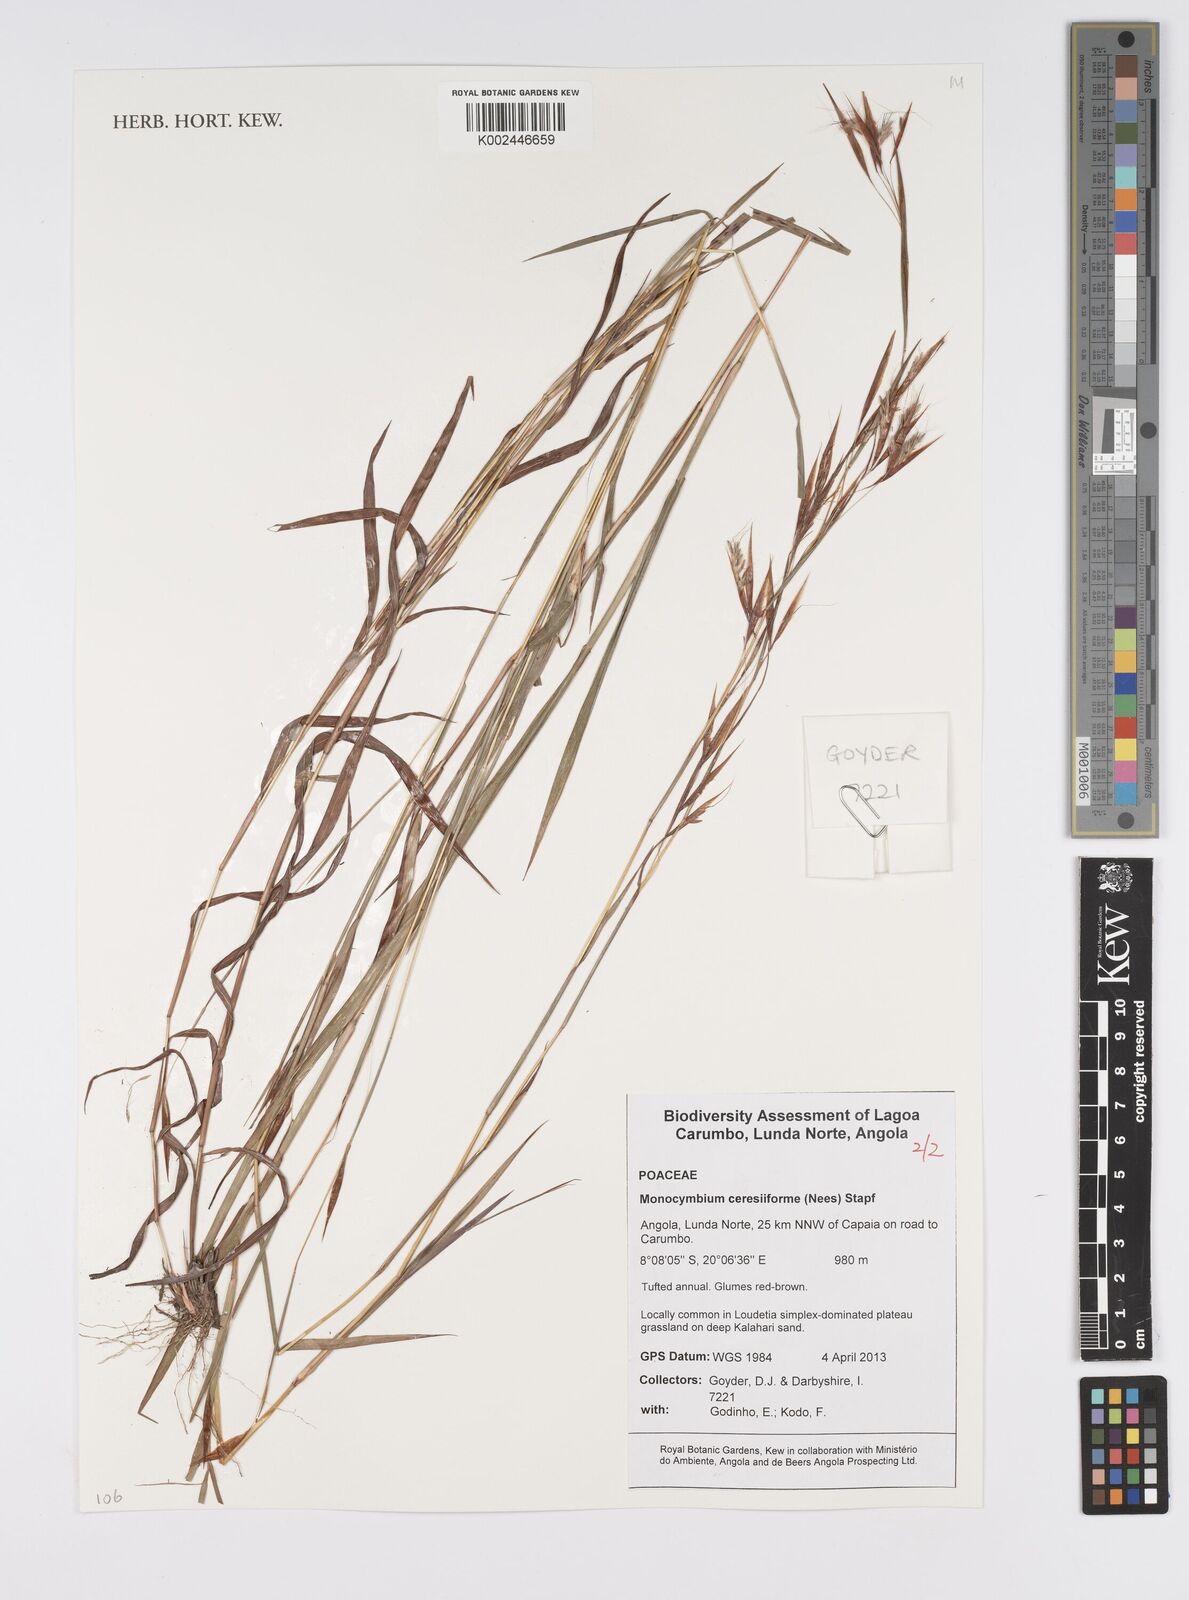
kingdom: Plantae
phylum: Tracheophyta
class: Liliopsida
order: Poales
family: Poaceae
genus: Monocymbium
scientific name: Monocymbium ceresiiforme
